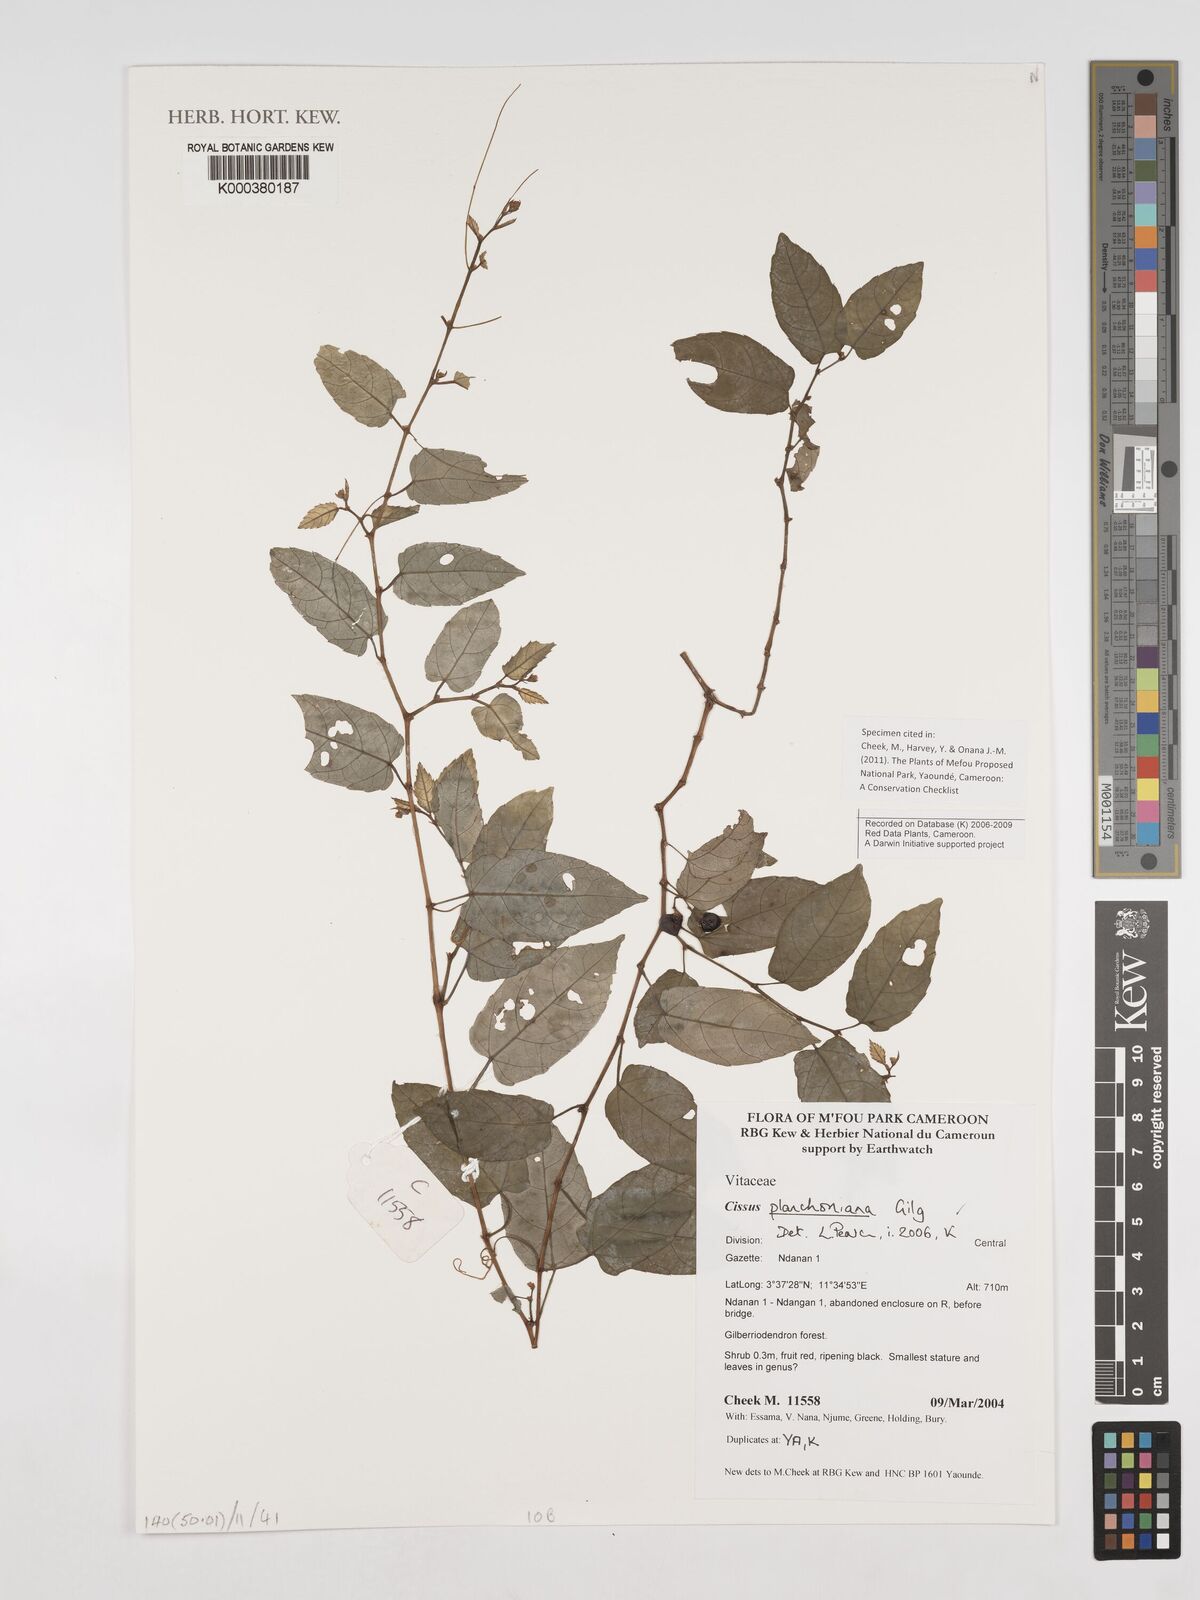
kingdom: Plantae
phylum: Tracheophyta
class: Magnoliopsida
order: Vitales
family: Vitaceae
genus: Cissus
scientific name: Cissus planchoniana
